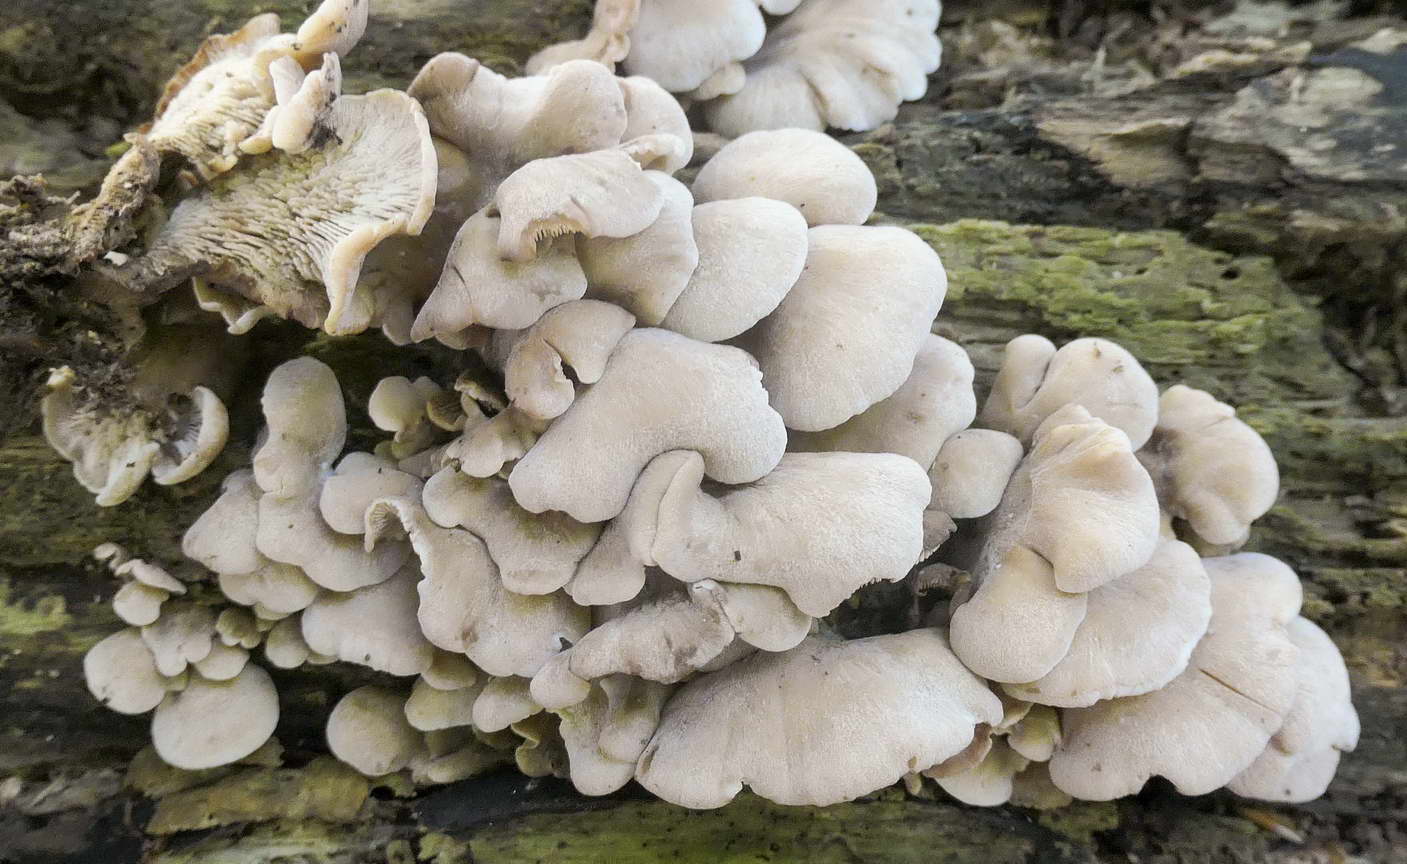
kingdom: Fungi
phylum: Basidiomycota
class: Agaricomycetes
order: Russulales
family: Auriscalpiaceae
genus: Lentinellus
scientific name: Lentinellus ursinus
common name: børstehåret savbladhat
